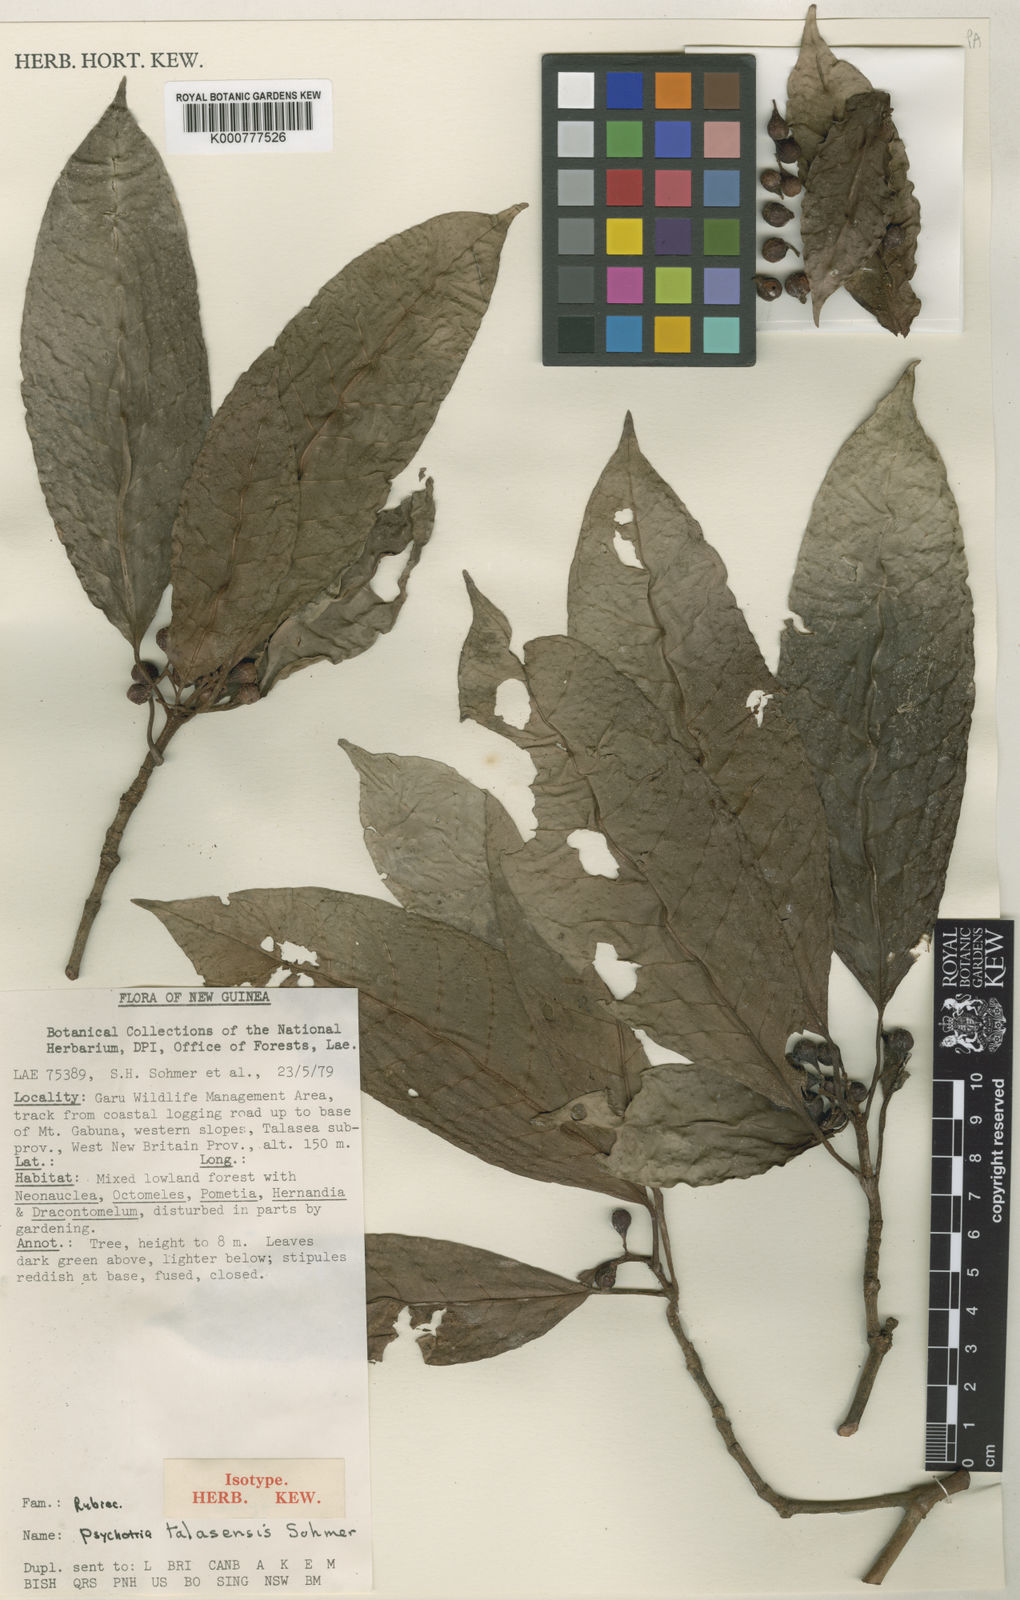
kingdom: Plantae
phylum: Tracheophyta
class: Magnoliopsida
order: Gentianales
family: Rubiaceae
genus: Psychotria
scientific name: Psychotria talasensis
